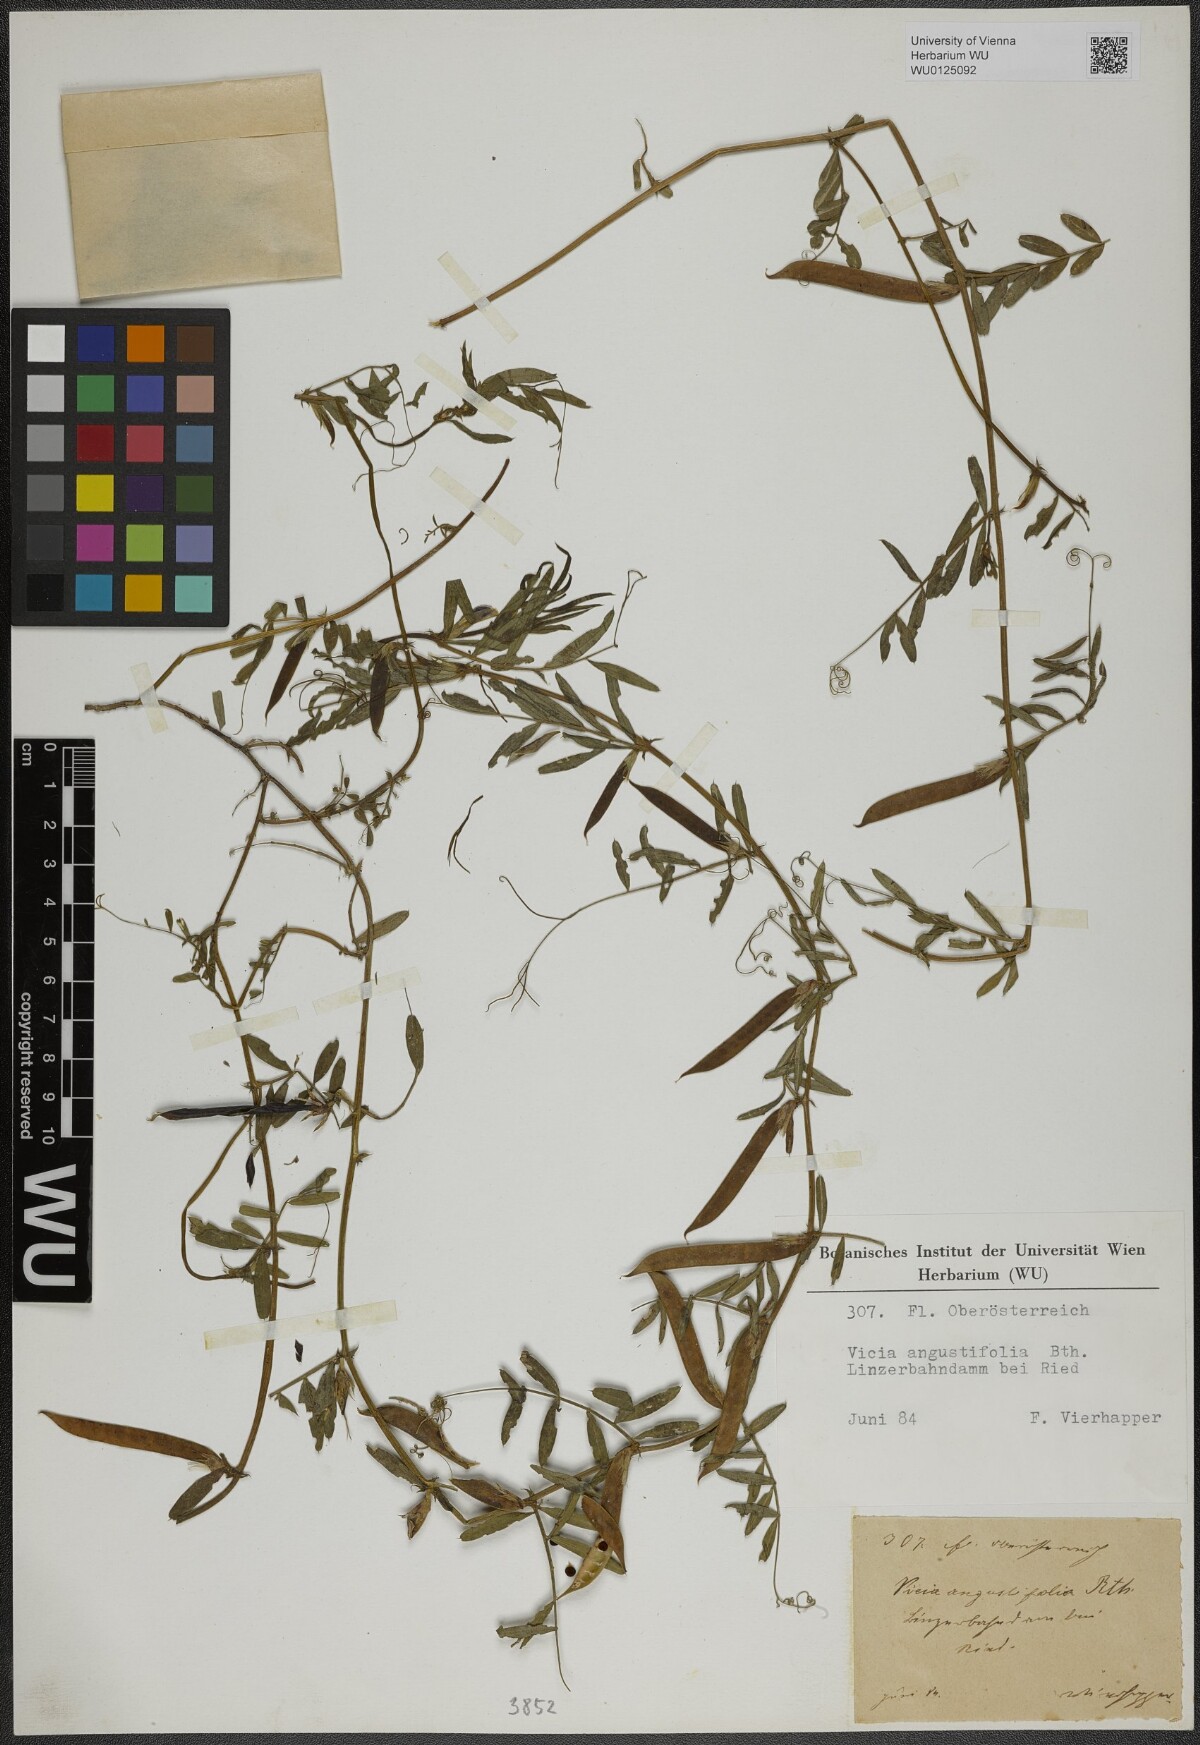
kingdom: Plantae
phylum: Tracheophyta
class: Magnoliopsida
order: Fabales
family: Fabaceae
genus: Vicia
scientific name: Vicia sativa
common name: Garden vetch
